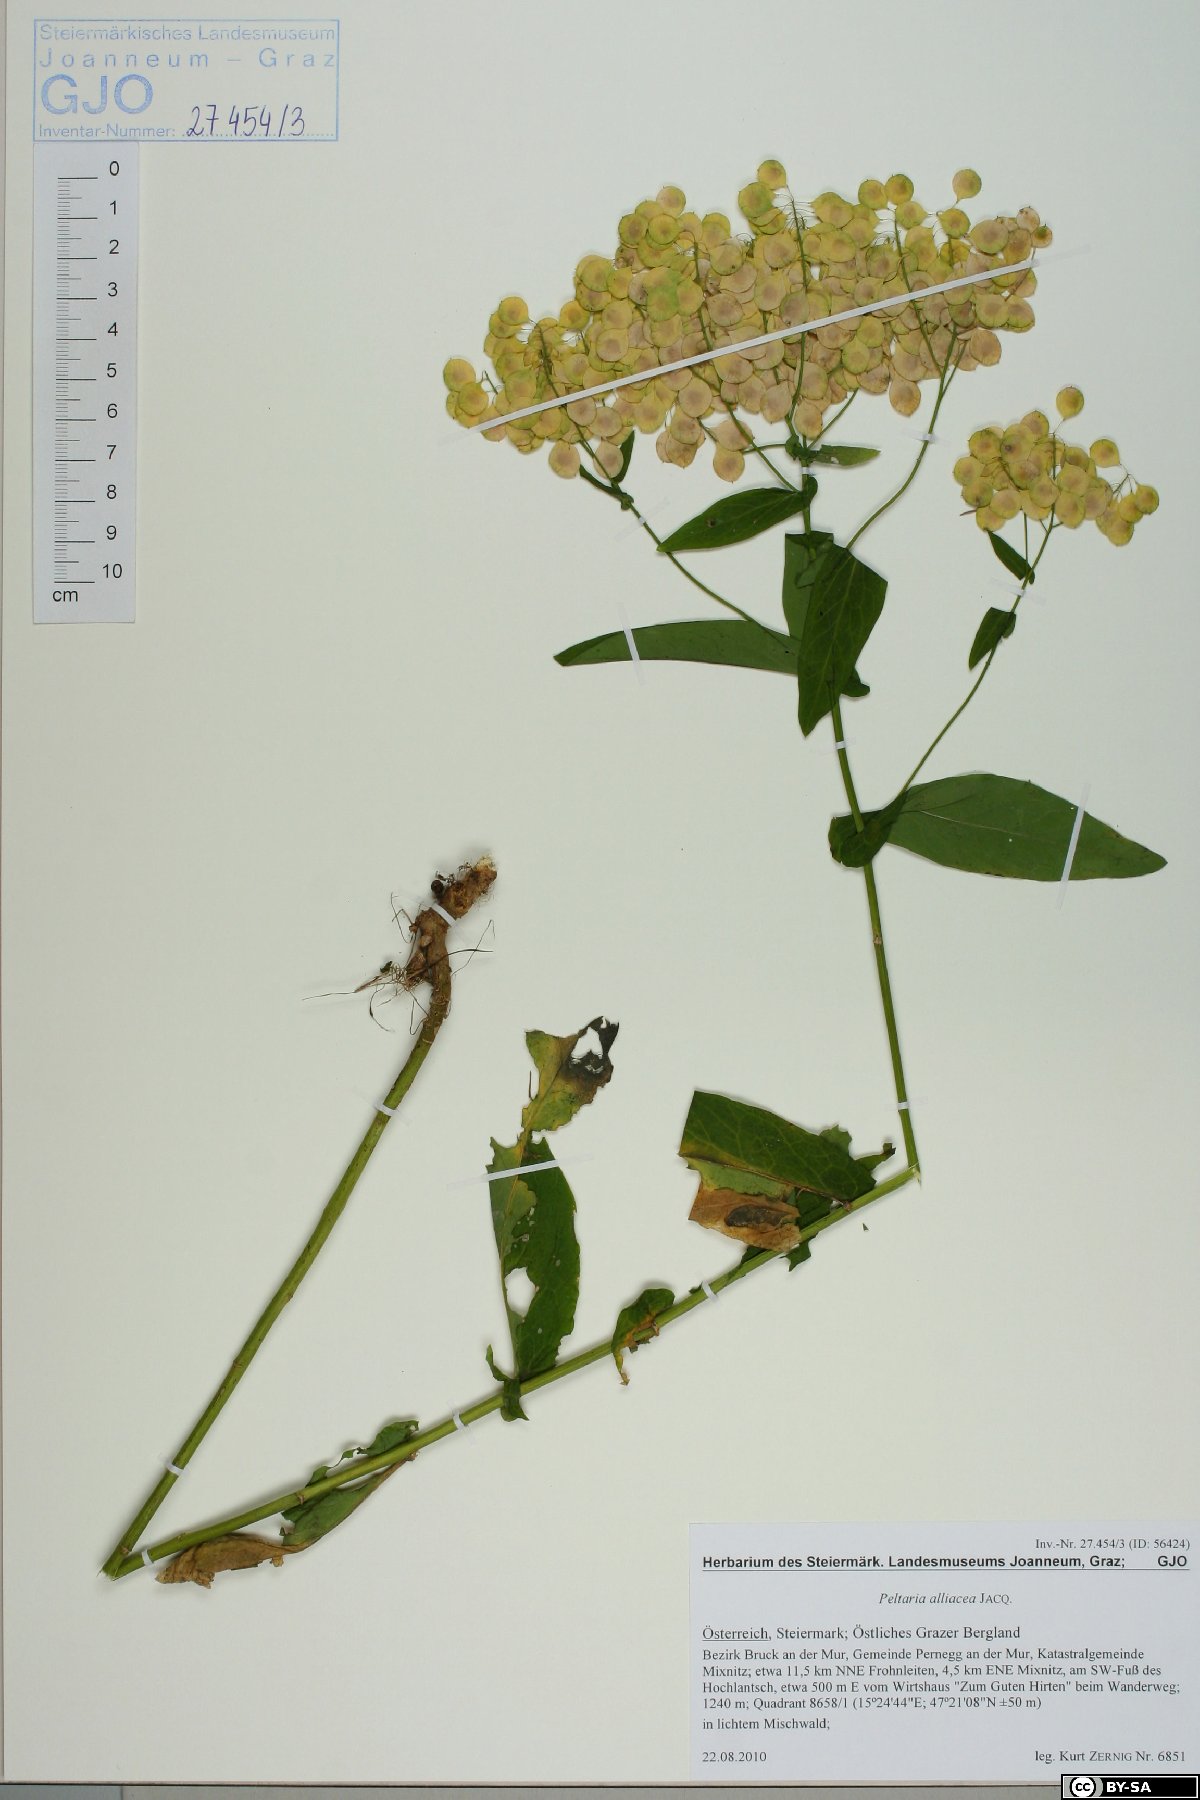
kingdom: Plantae
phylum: Tracheophyta
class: Magnoliopsida
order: Brassicales
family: Brassicaceae
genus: Peltaria
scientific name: Peltaria alliacea
